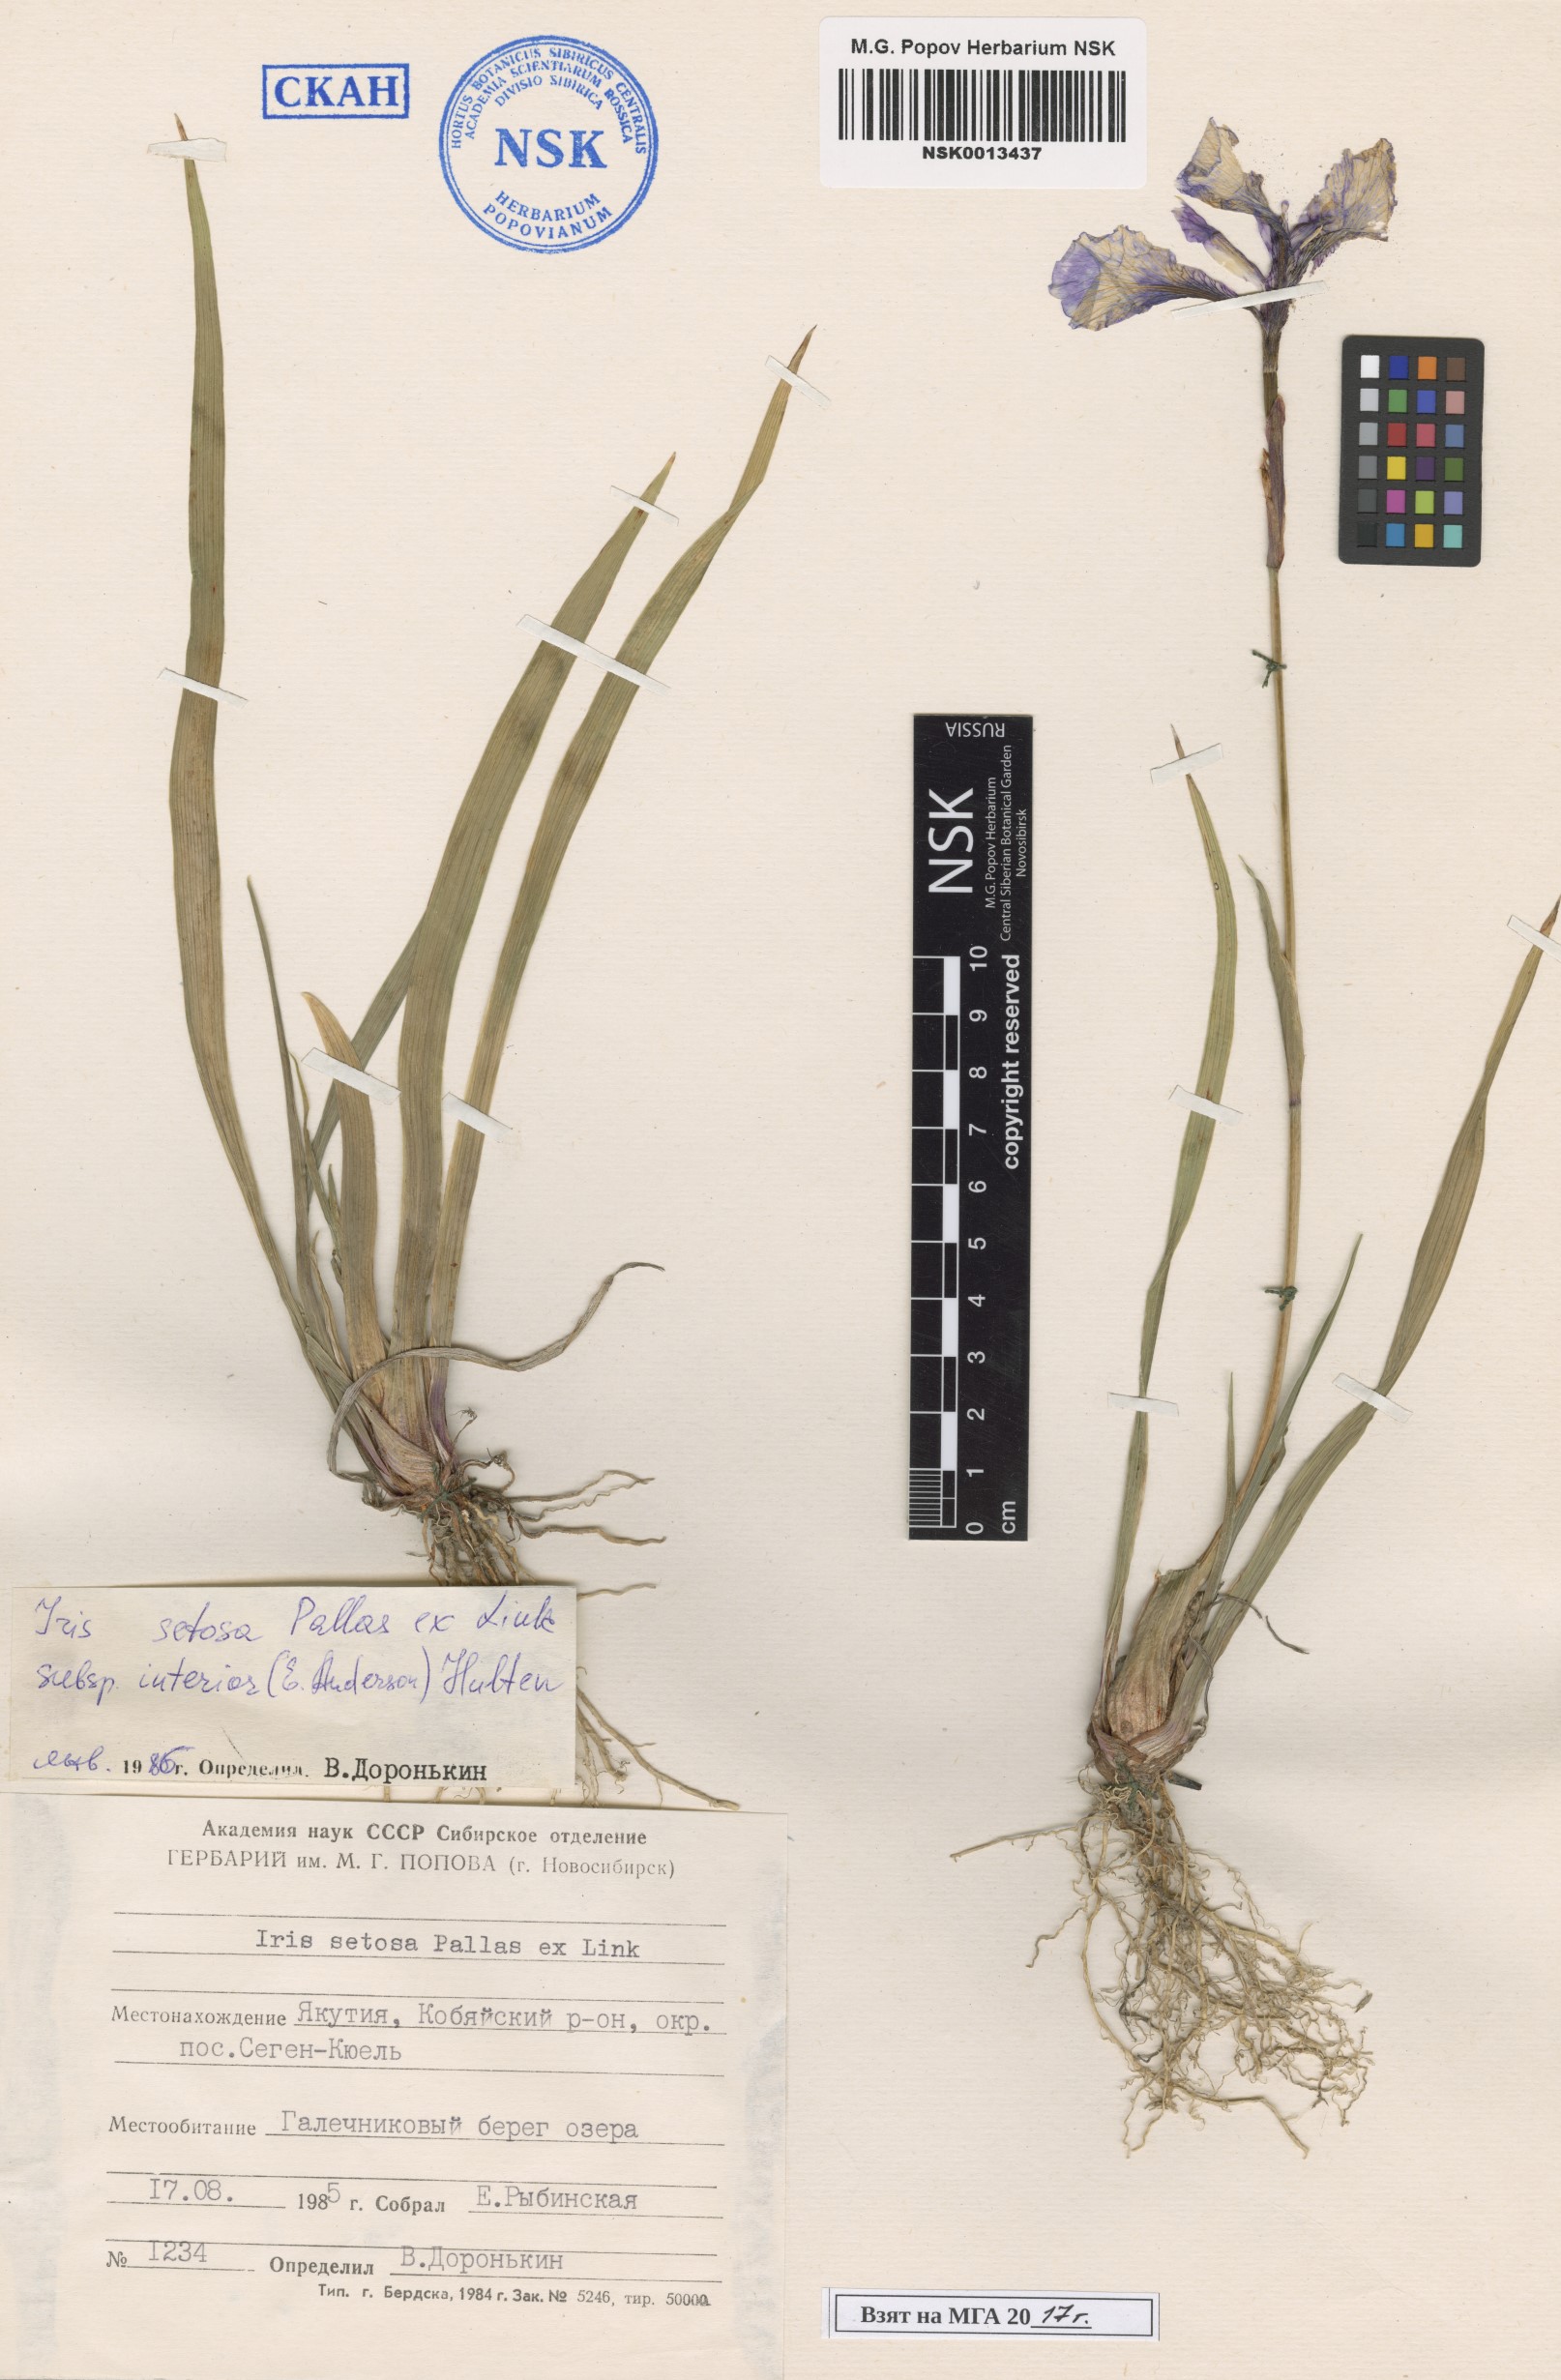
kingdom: Plantae
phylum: Tracheophyta
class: Liliopsida
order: Asparagales
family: Iridaceae
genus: Iris
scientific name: Iris setosa
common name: Arctic blue flag
